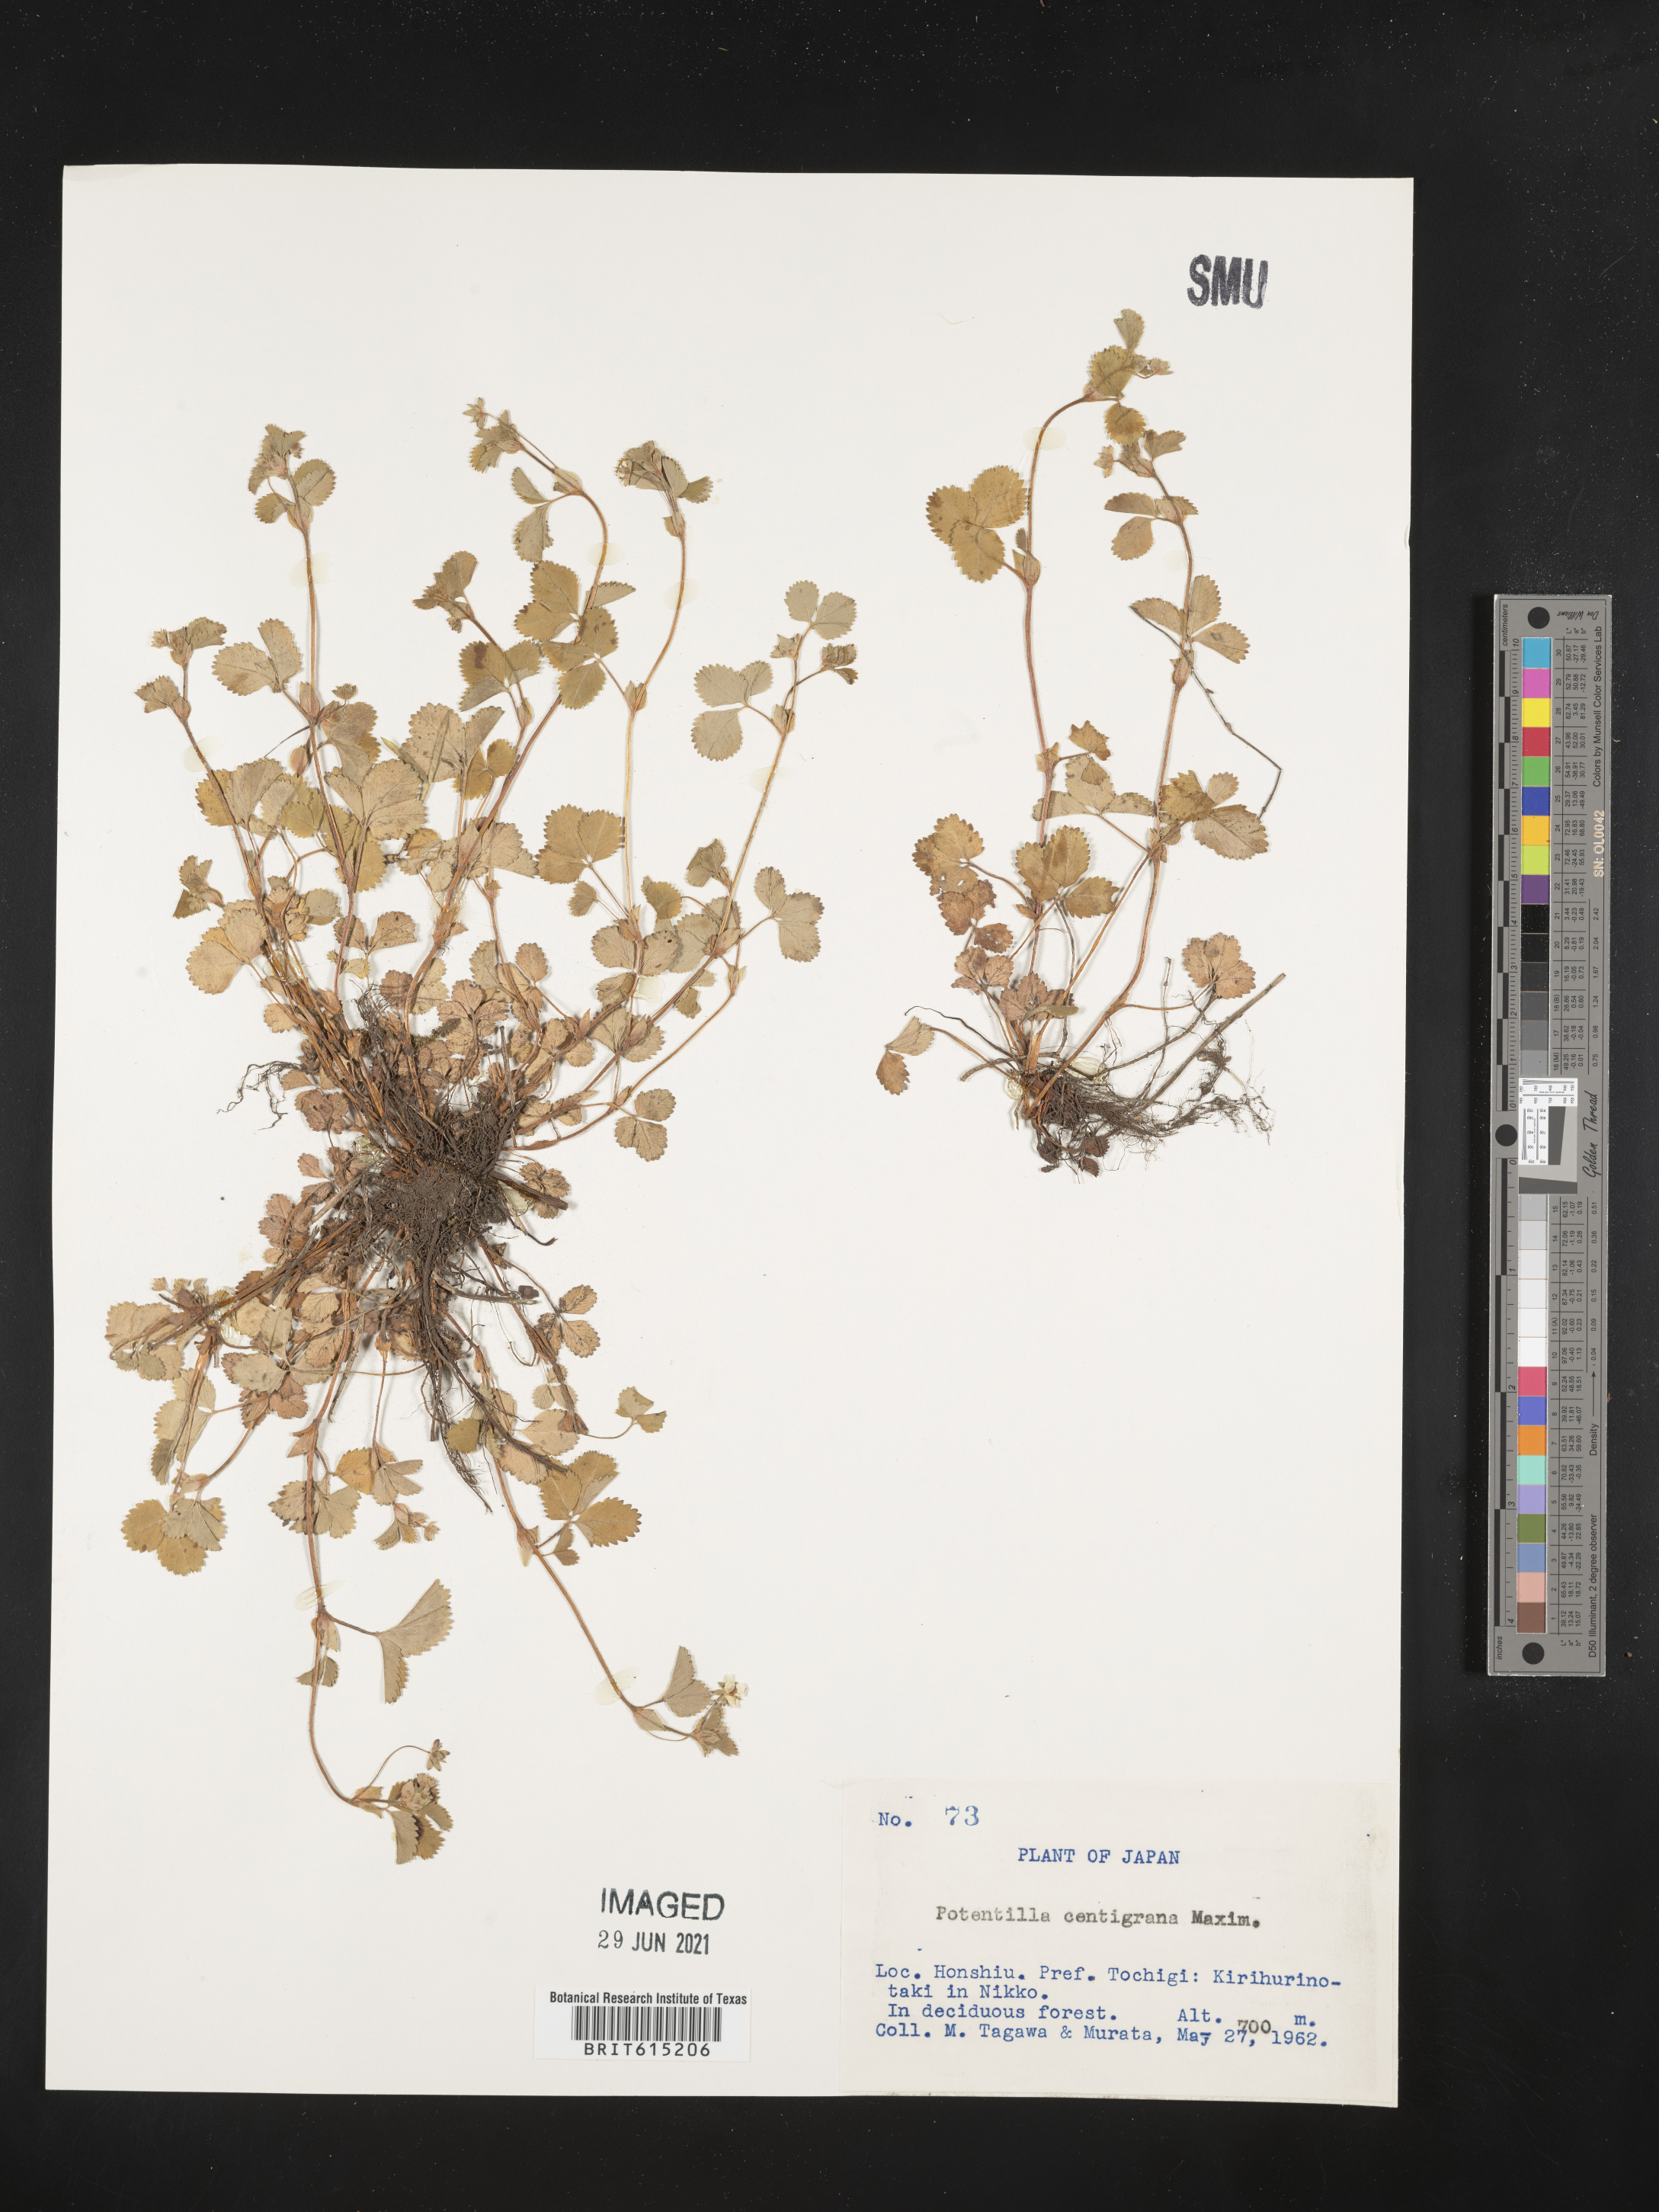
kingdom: Plantae
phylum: Tracheophyta
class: Magnoliopsida
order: Rosales
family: Rosaceae
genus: Potentilla
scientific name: Potentilla centigrana
